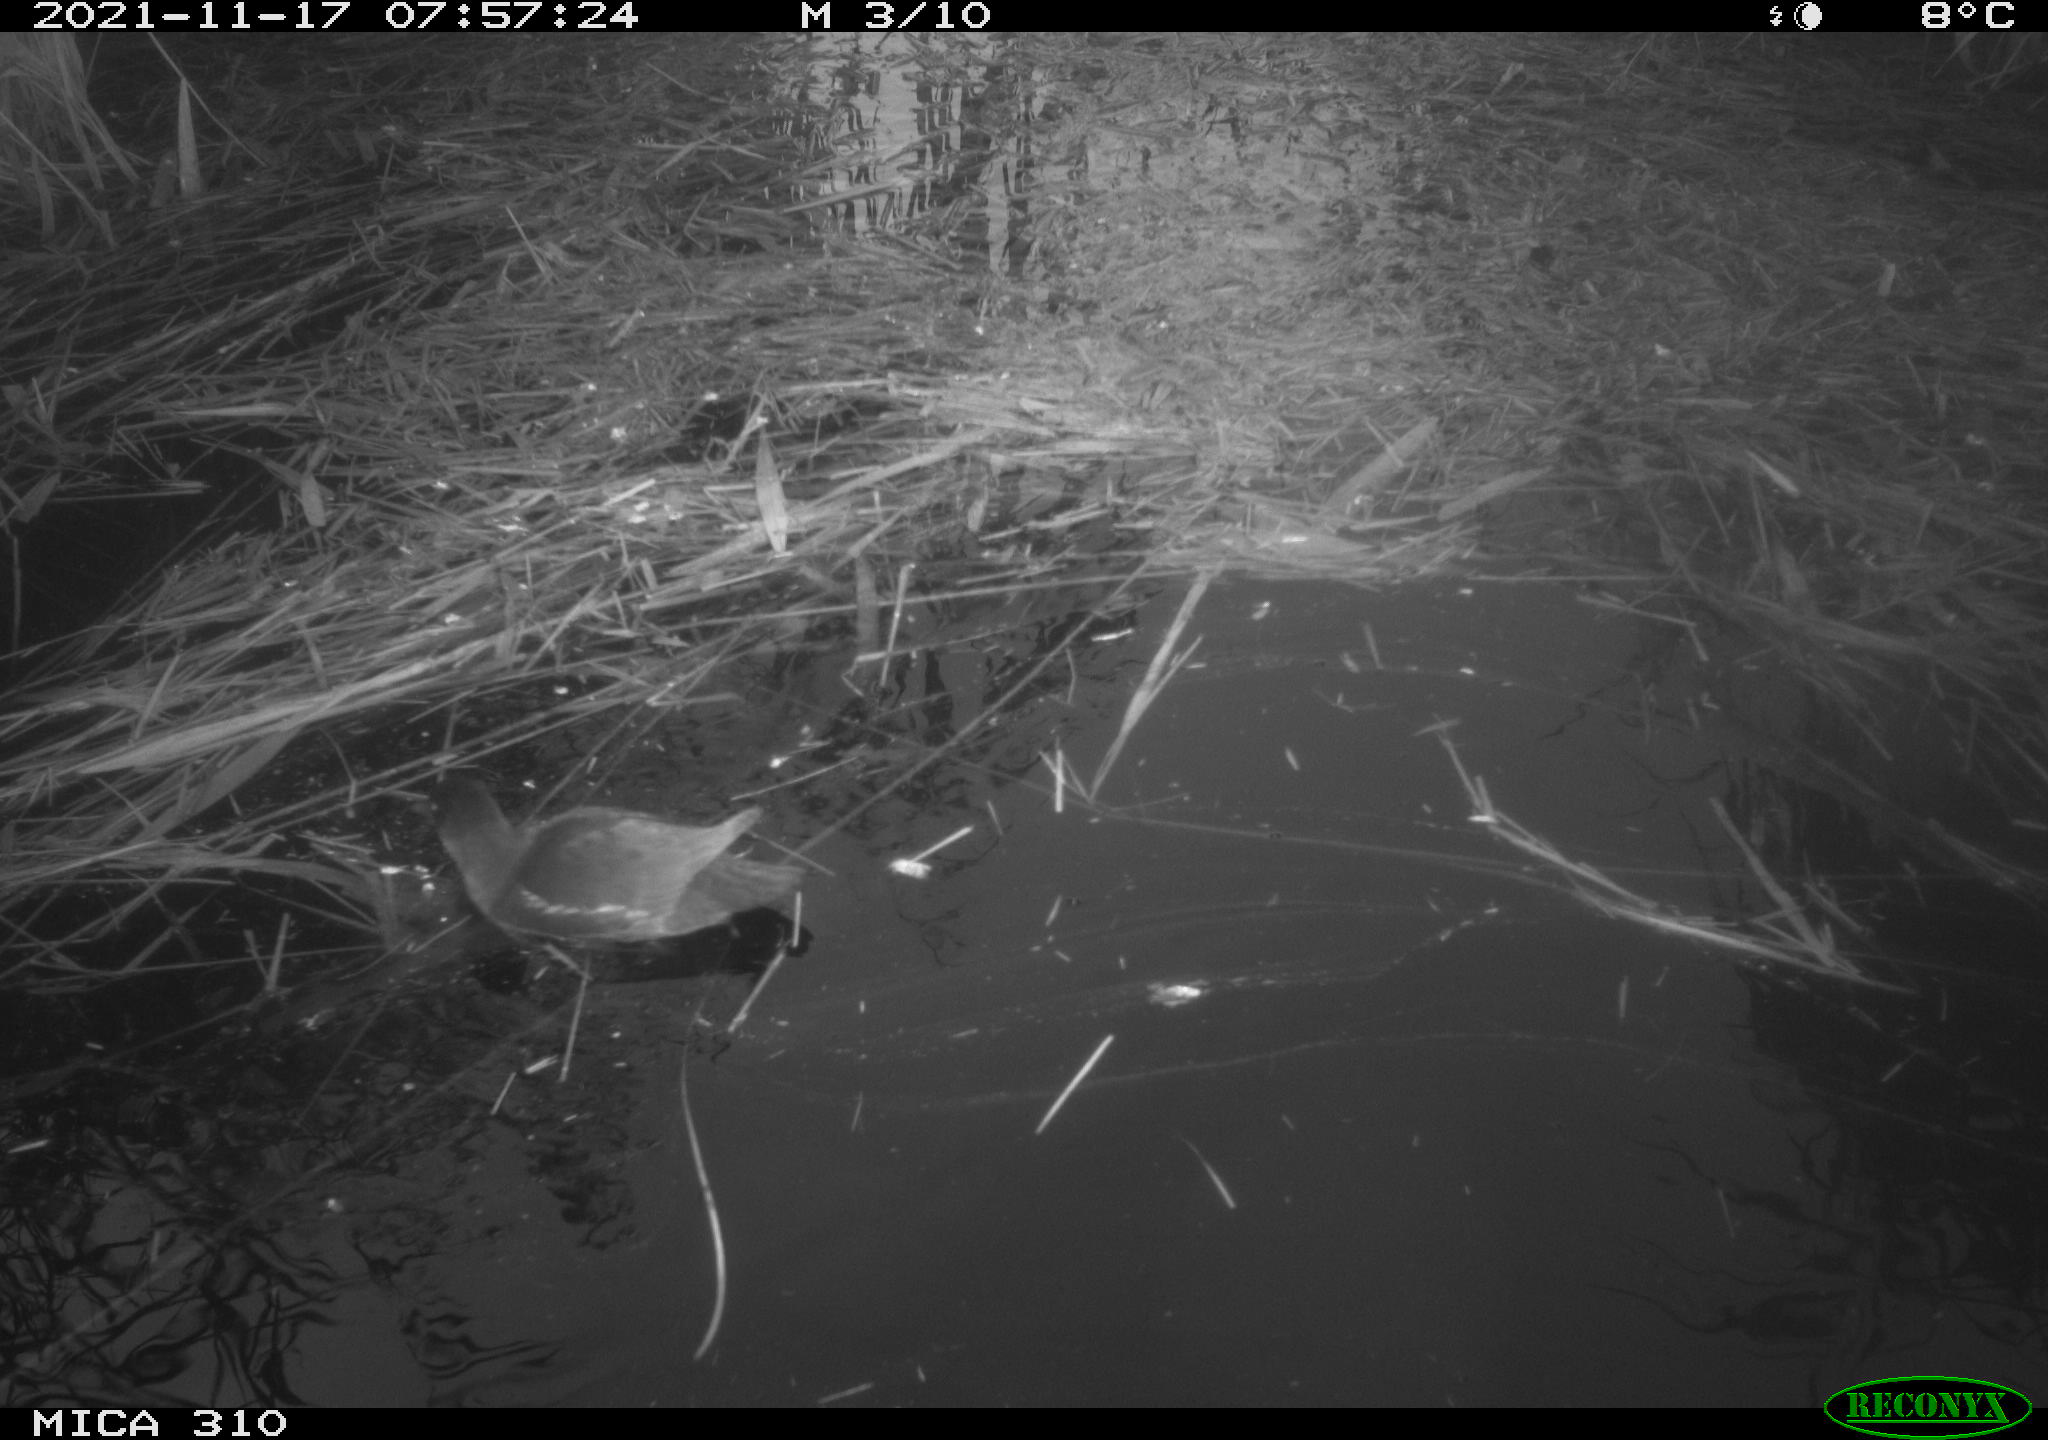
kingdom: Animalia
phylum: Chordata
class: Aves
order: Gruiformes
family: Rallidae
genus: Gallinula
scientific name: Gallinula chloropus
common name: Common moorhen
